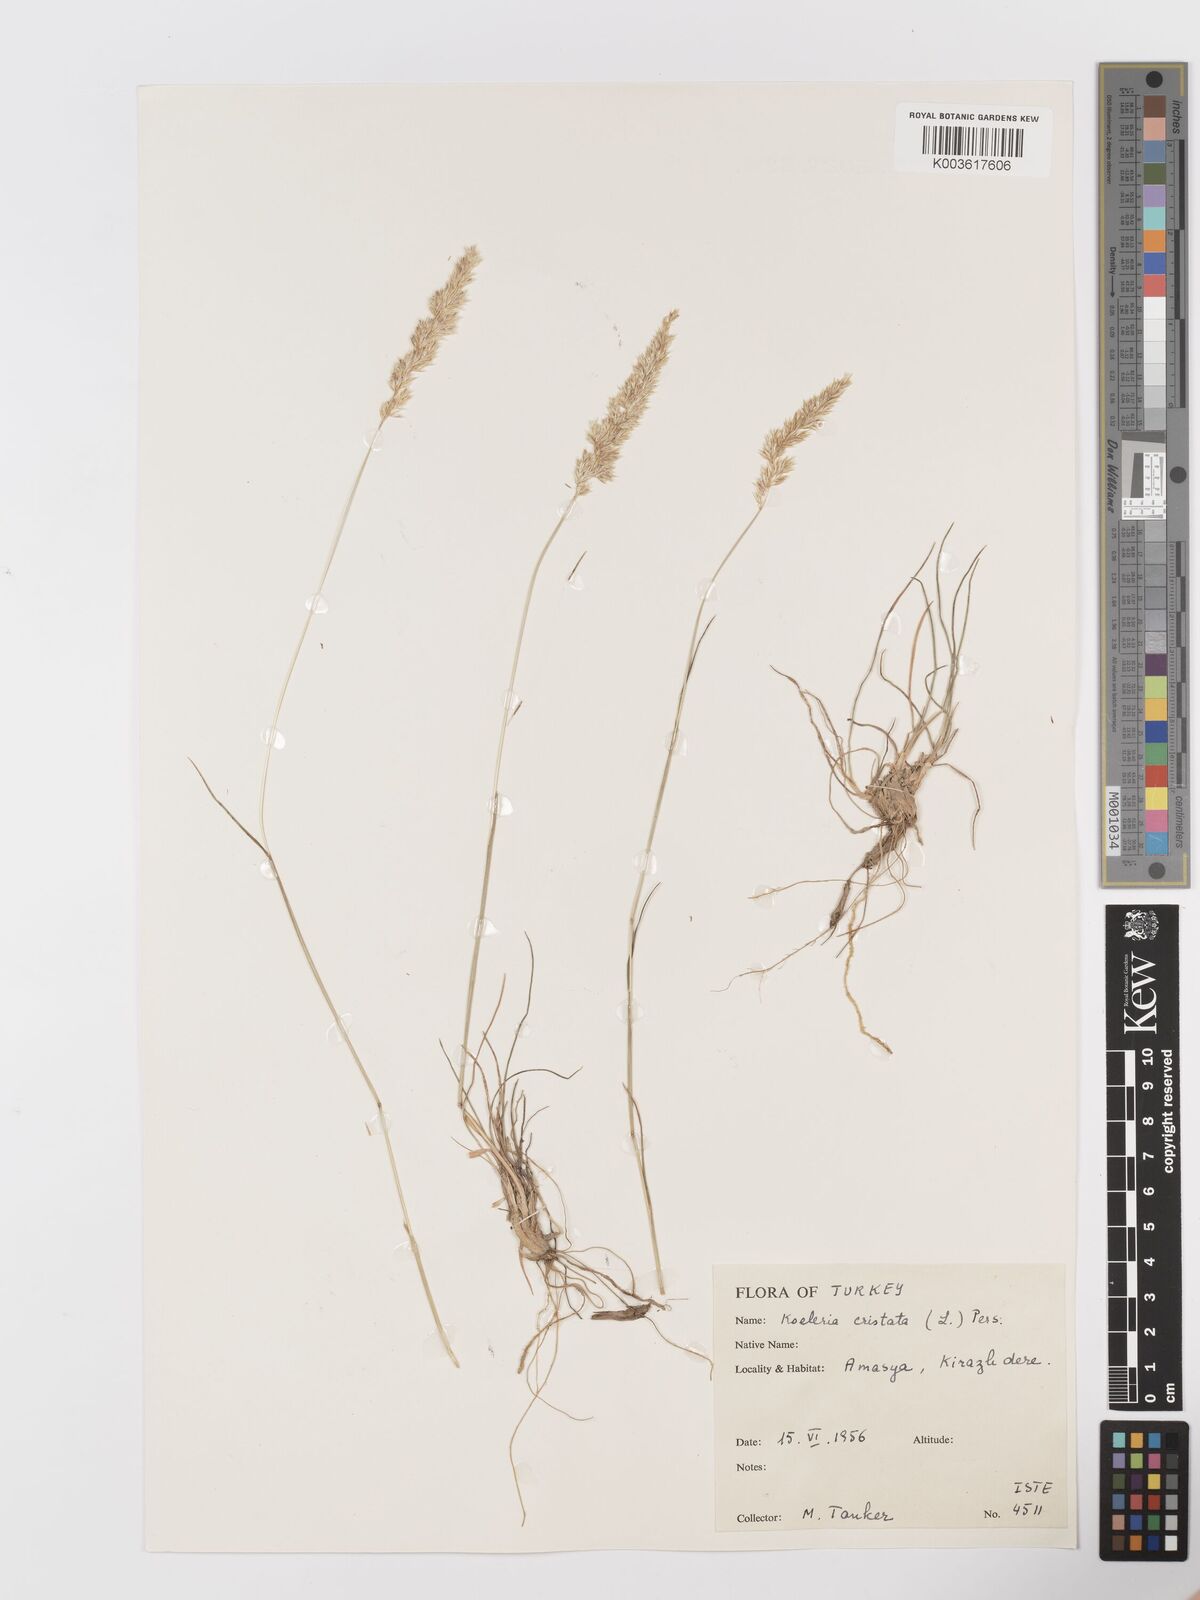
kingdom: Plantae
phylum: Tracheophyta
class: Liliopsida
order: Poales
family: Poaceae
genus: Koeleria
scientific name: Koeleria macrantha
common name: Crested hair-grass
